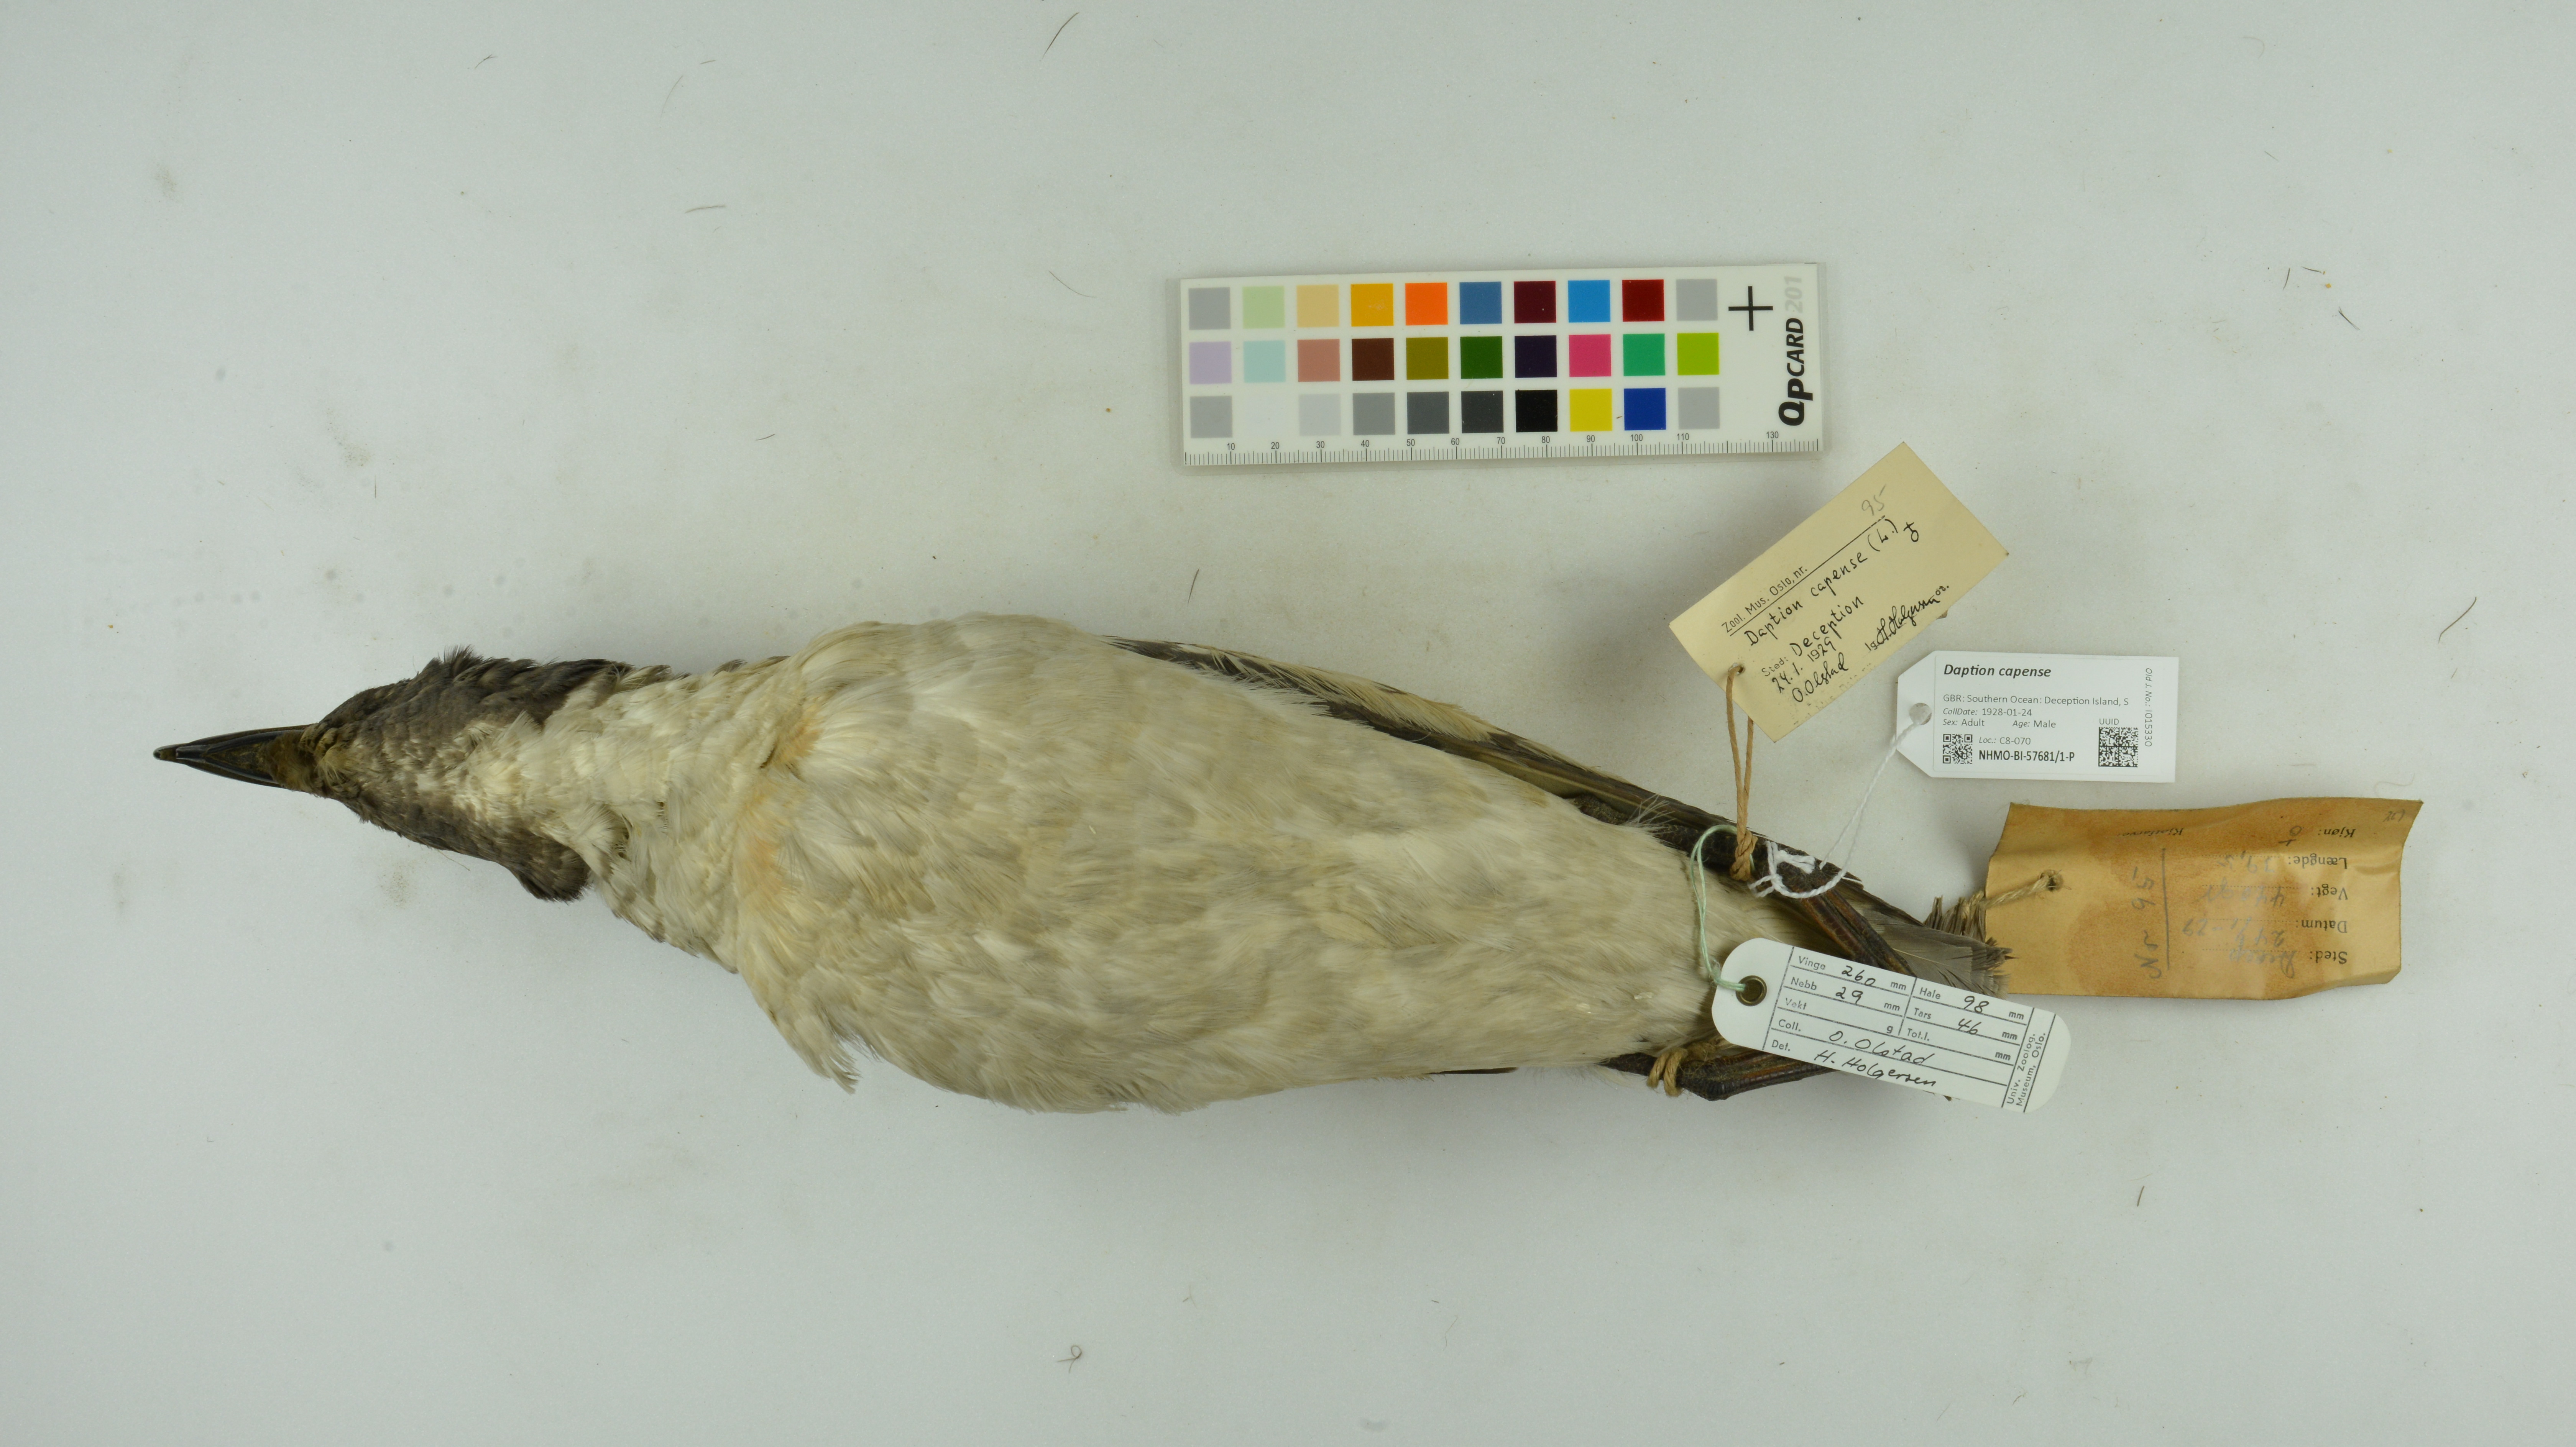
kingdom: Animalia
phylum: Chordata
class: Aves
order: Procellariiformes
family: Procellariidae
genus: Daption
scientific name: Daption capense
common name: Cape petrel
